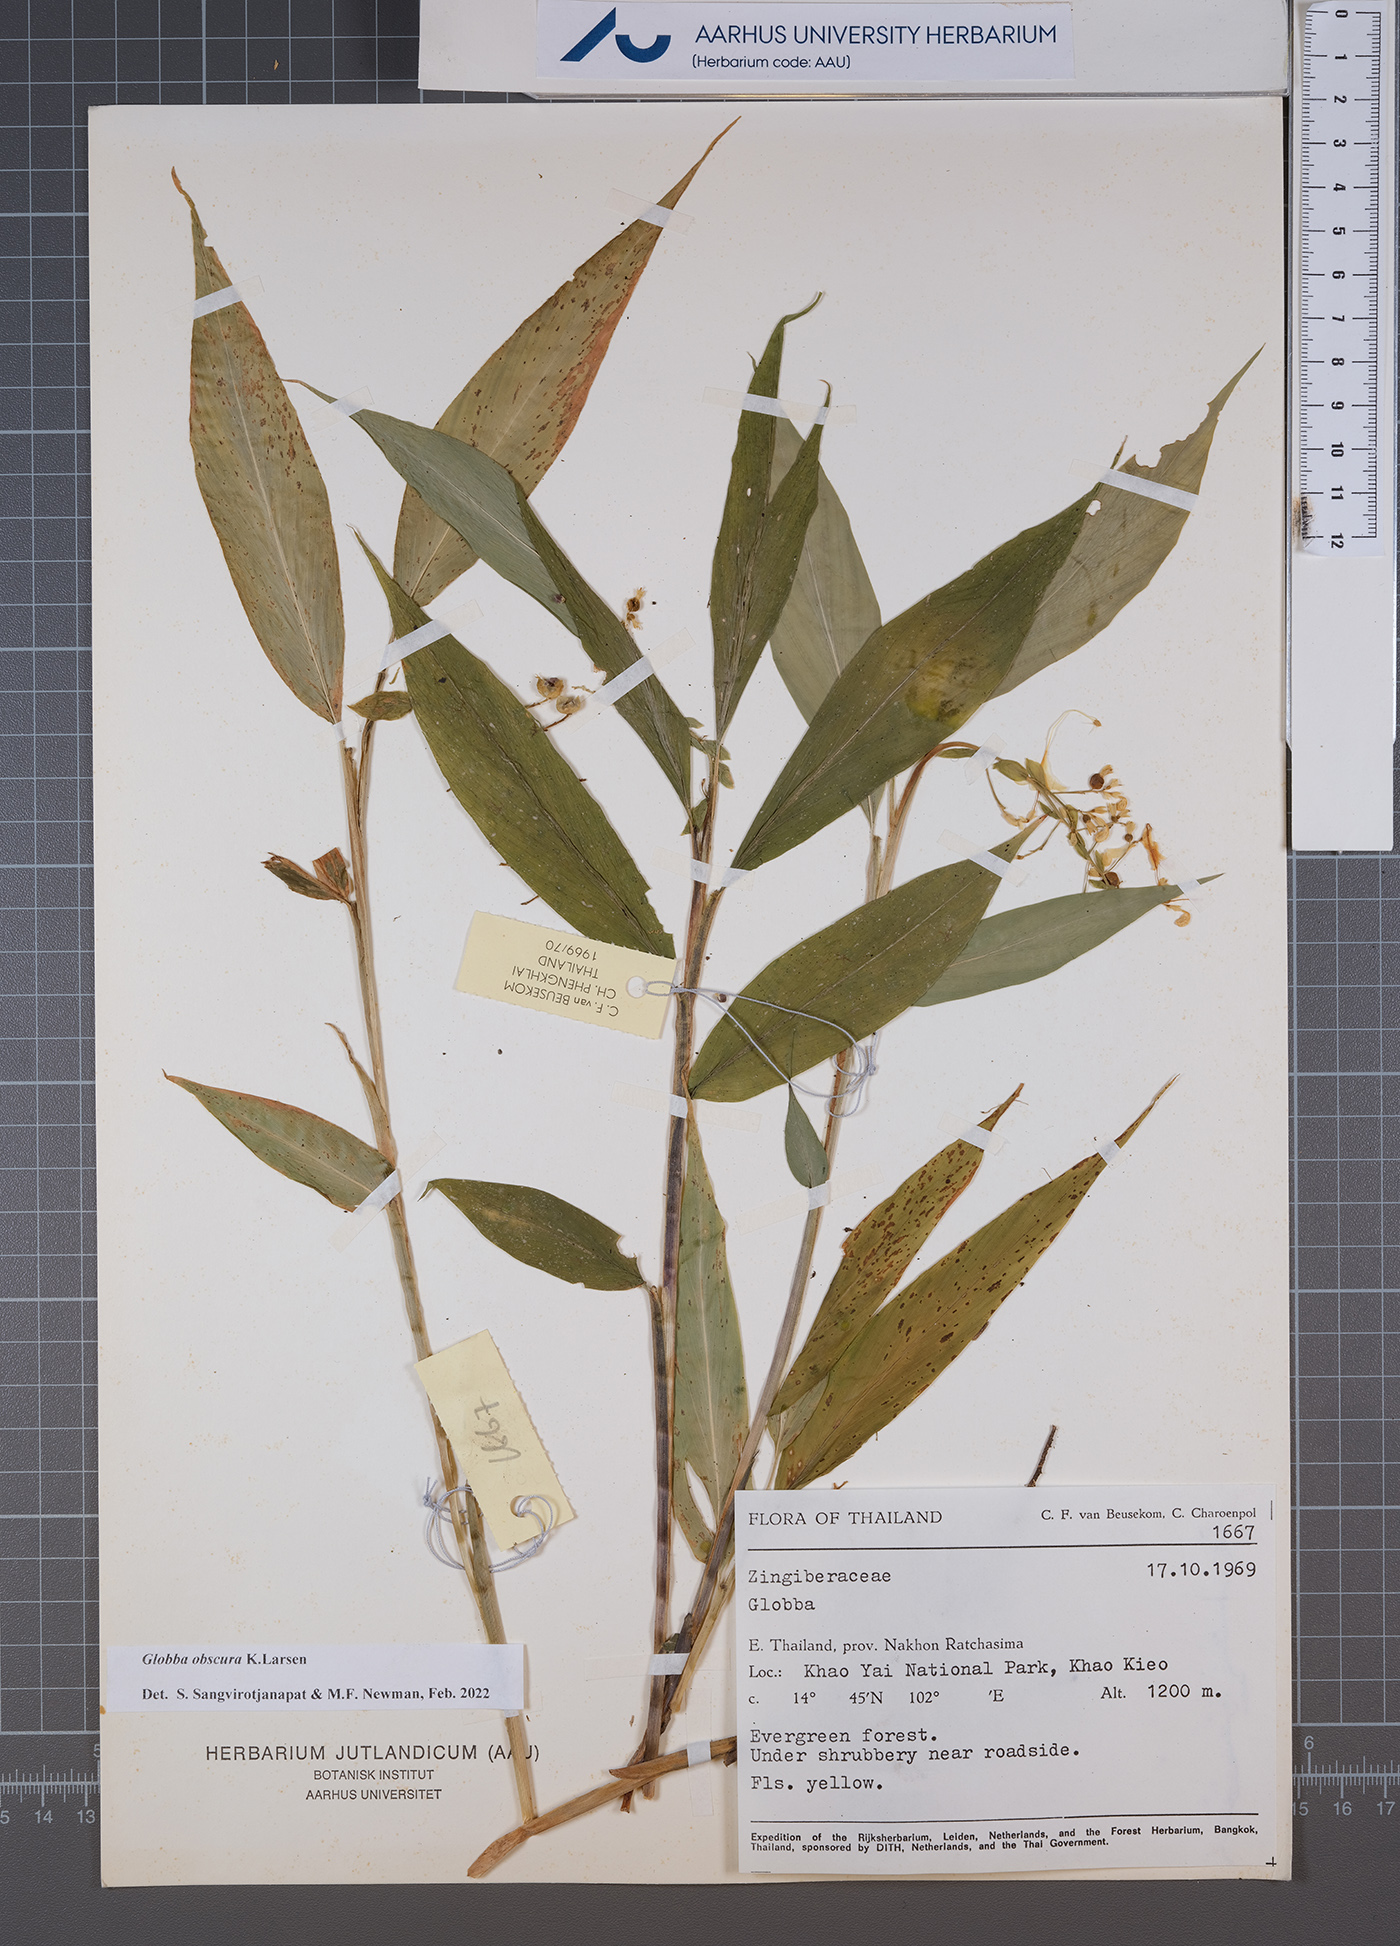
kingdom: Plantae
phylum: Tracheophyta
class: Liliopsida
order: Zingiberales
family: Zingiberaceae
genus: Globba
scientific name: Globba obscura
